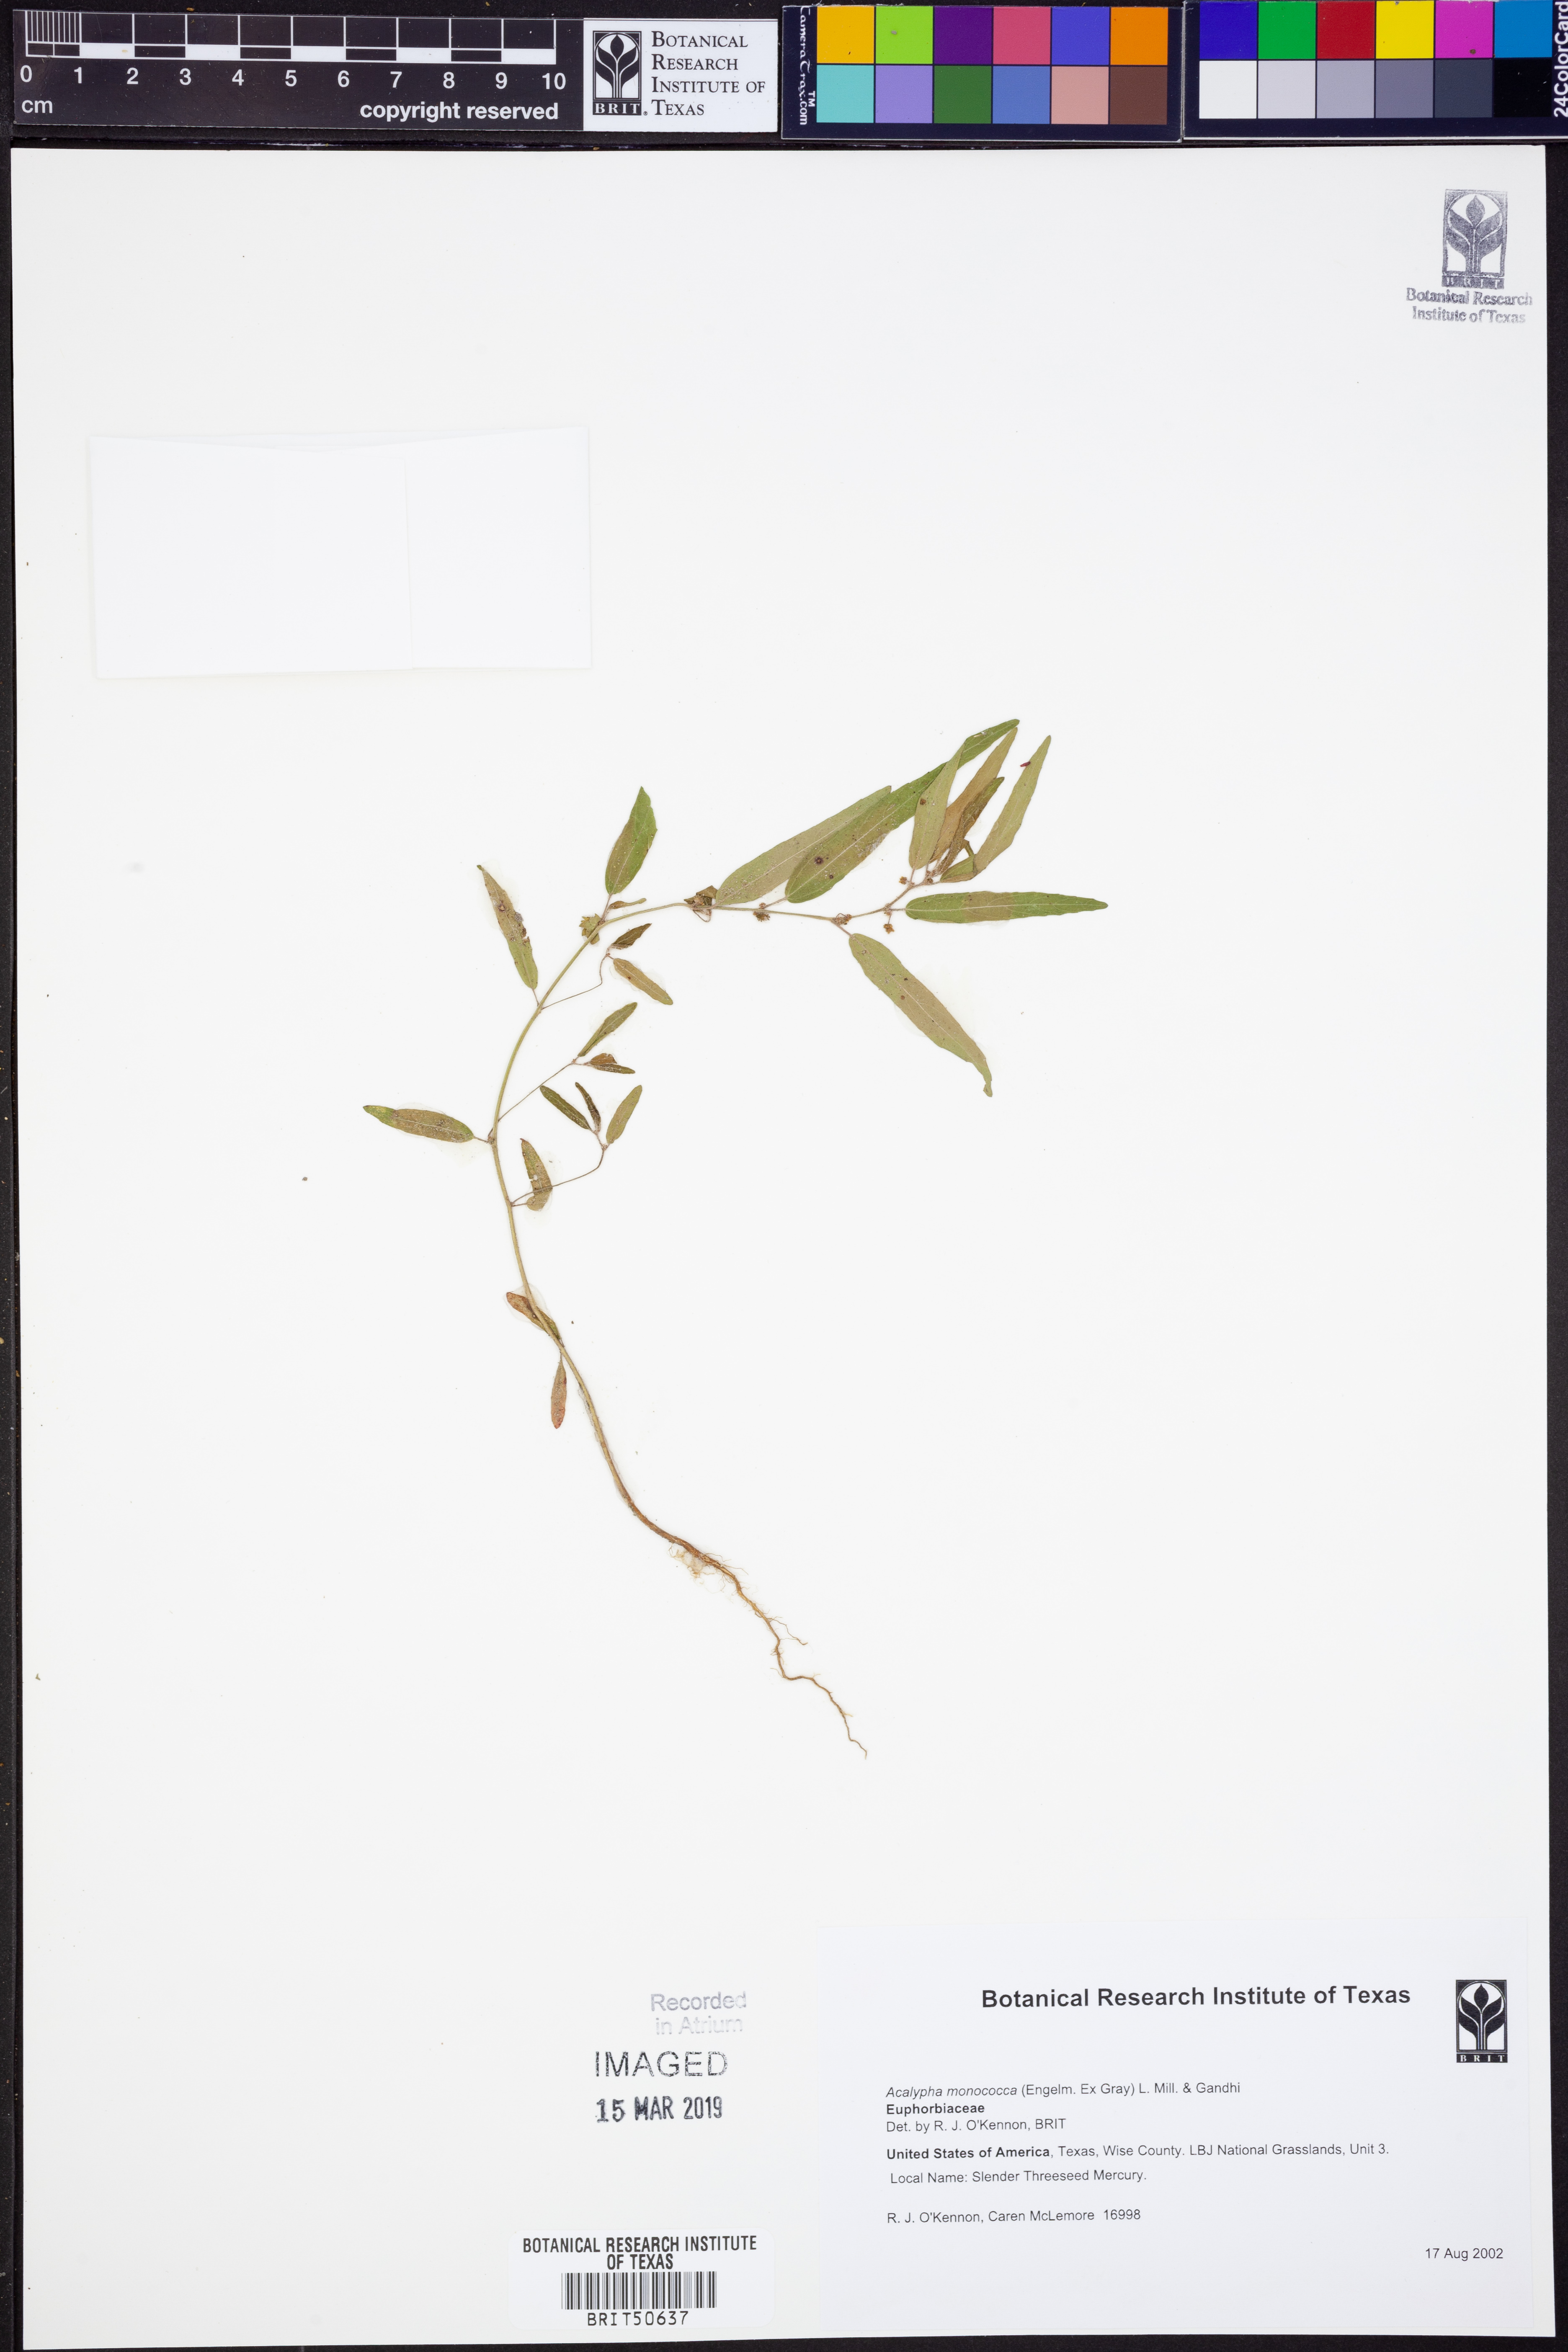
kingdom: Plantae
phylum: Tracheophyta
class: Magnoliopsida
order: Malpighiales
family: Euphorbiaceae
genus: Acalypha
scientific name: Acalypha monococca
